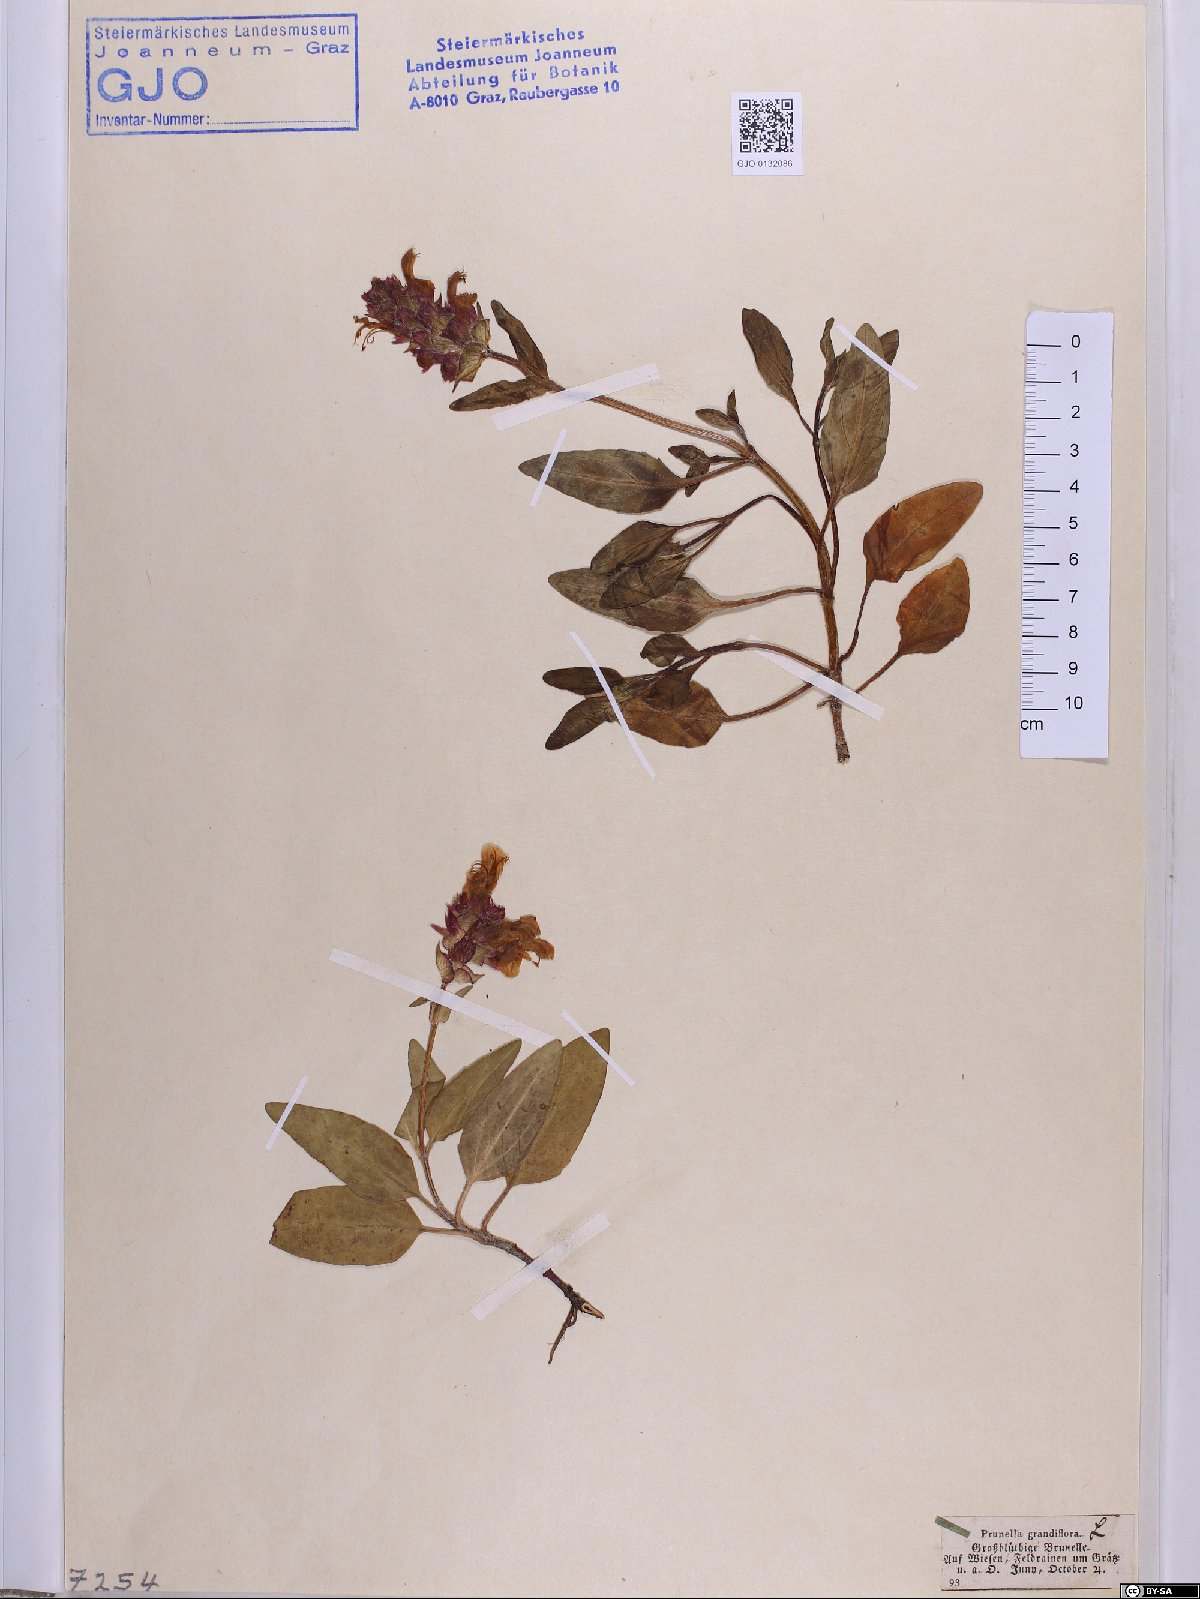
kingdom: Plantae
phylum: Tracheophyta
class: Magnoliopsida
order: Lamiales
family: Lamiaceae
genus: Prunella
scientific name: Prunella grandiflora
